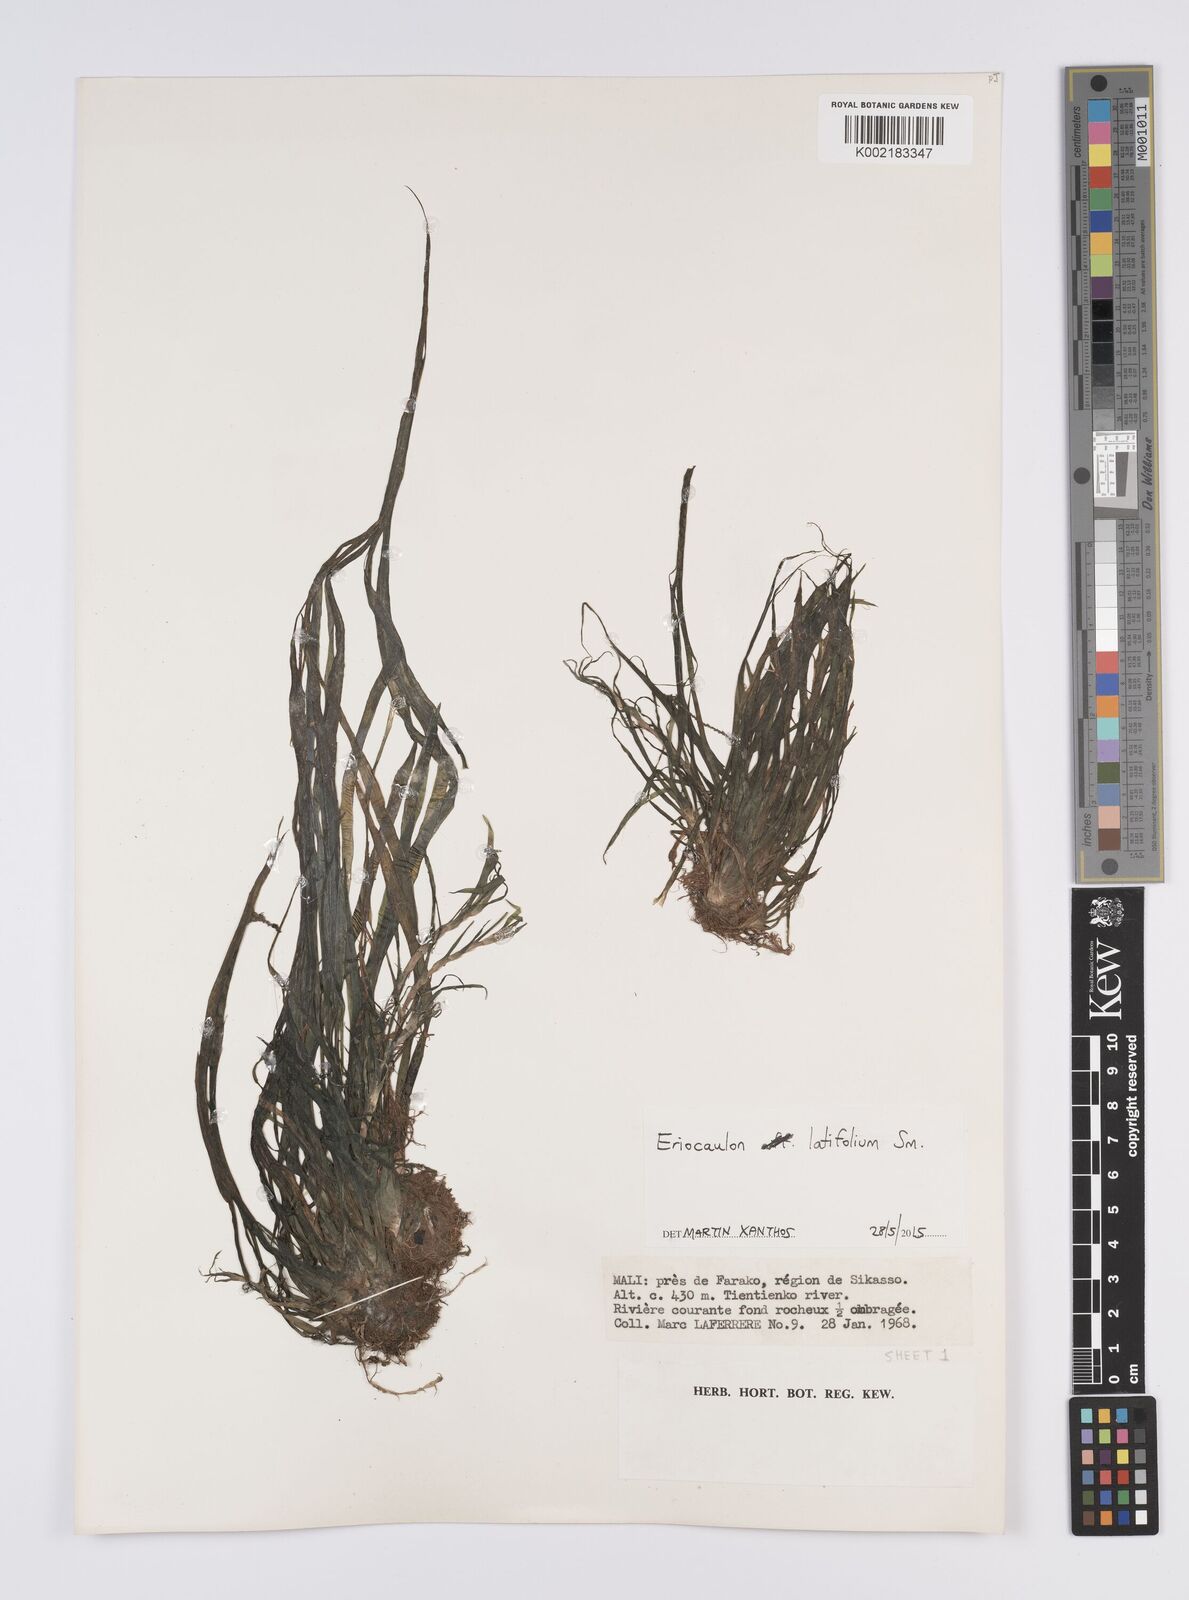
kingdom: Plantae
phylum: Tracheophyta
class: Liliopsida
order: Poales
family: Eriocaulaceae
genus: Eriocaulon
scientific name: Eriocaulon latifolium
